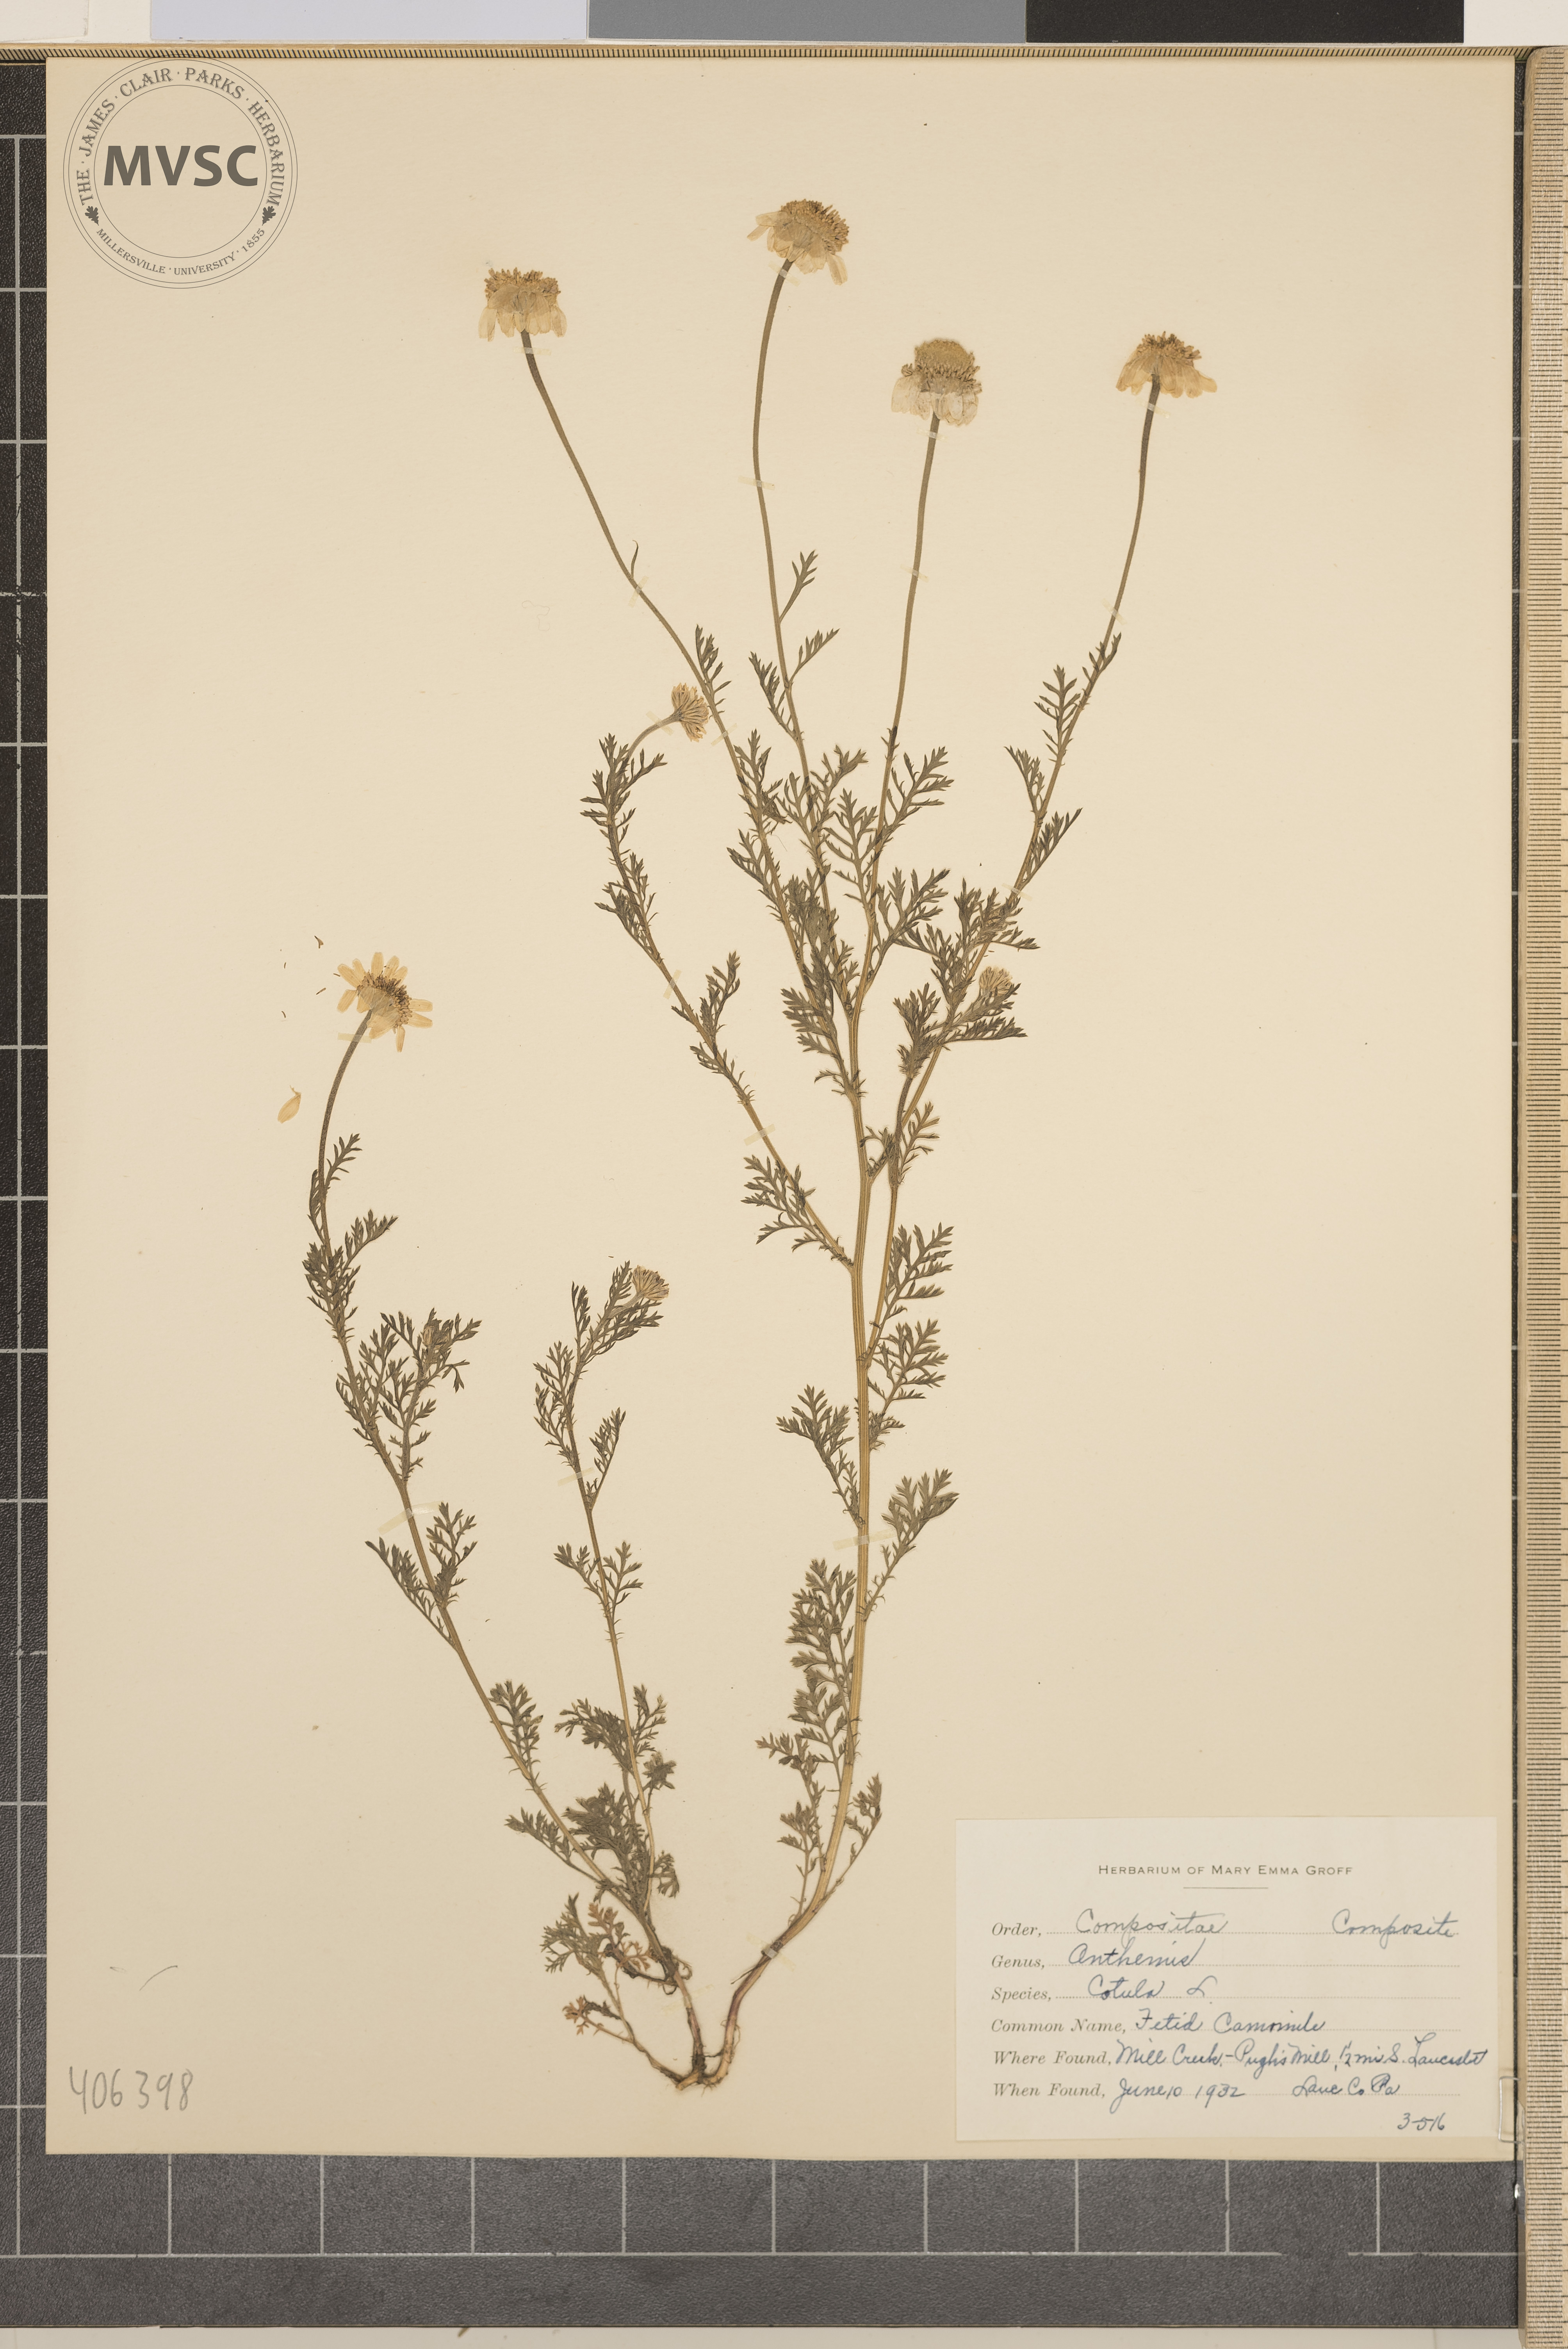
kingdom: Plantae
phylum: Tracheophyta
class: Magnoliopsida
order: Asterales
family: Asteraceae
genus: Anthemis
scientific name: Anthemis cotula
